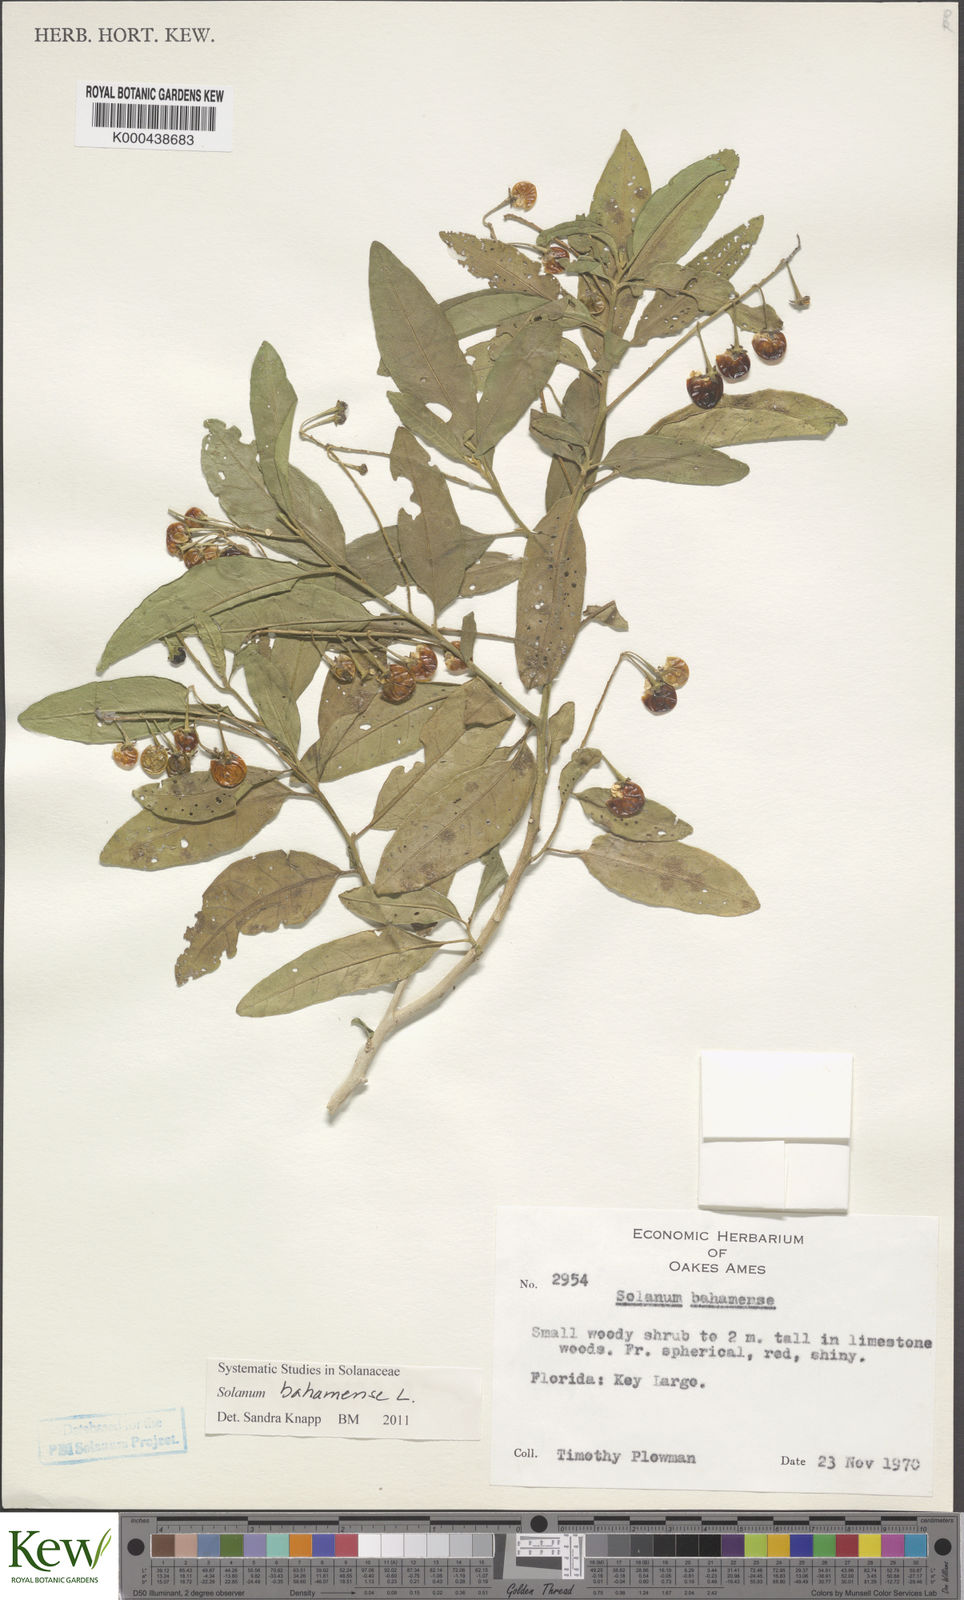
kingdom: Plantae
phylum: Tracheophyta
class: Magnoliopsida
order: Solanales
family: Solanaceae
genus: Solanum
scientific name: Solanum bahamense
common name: Canker-berry
